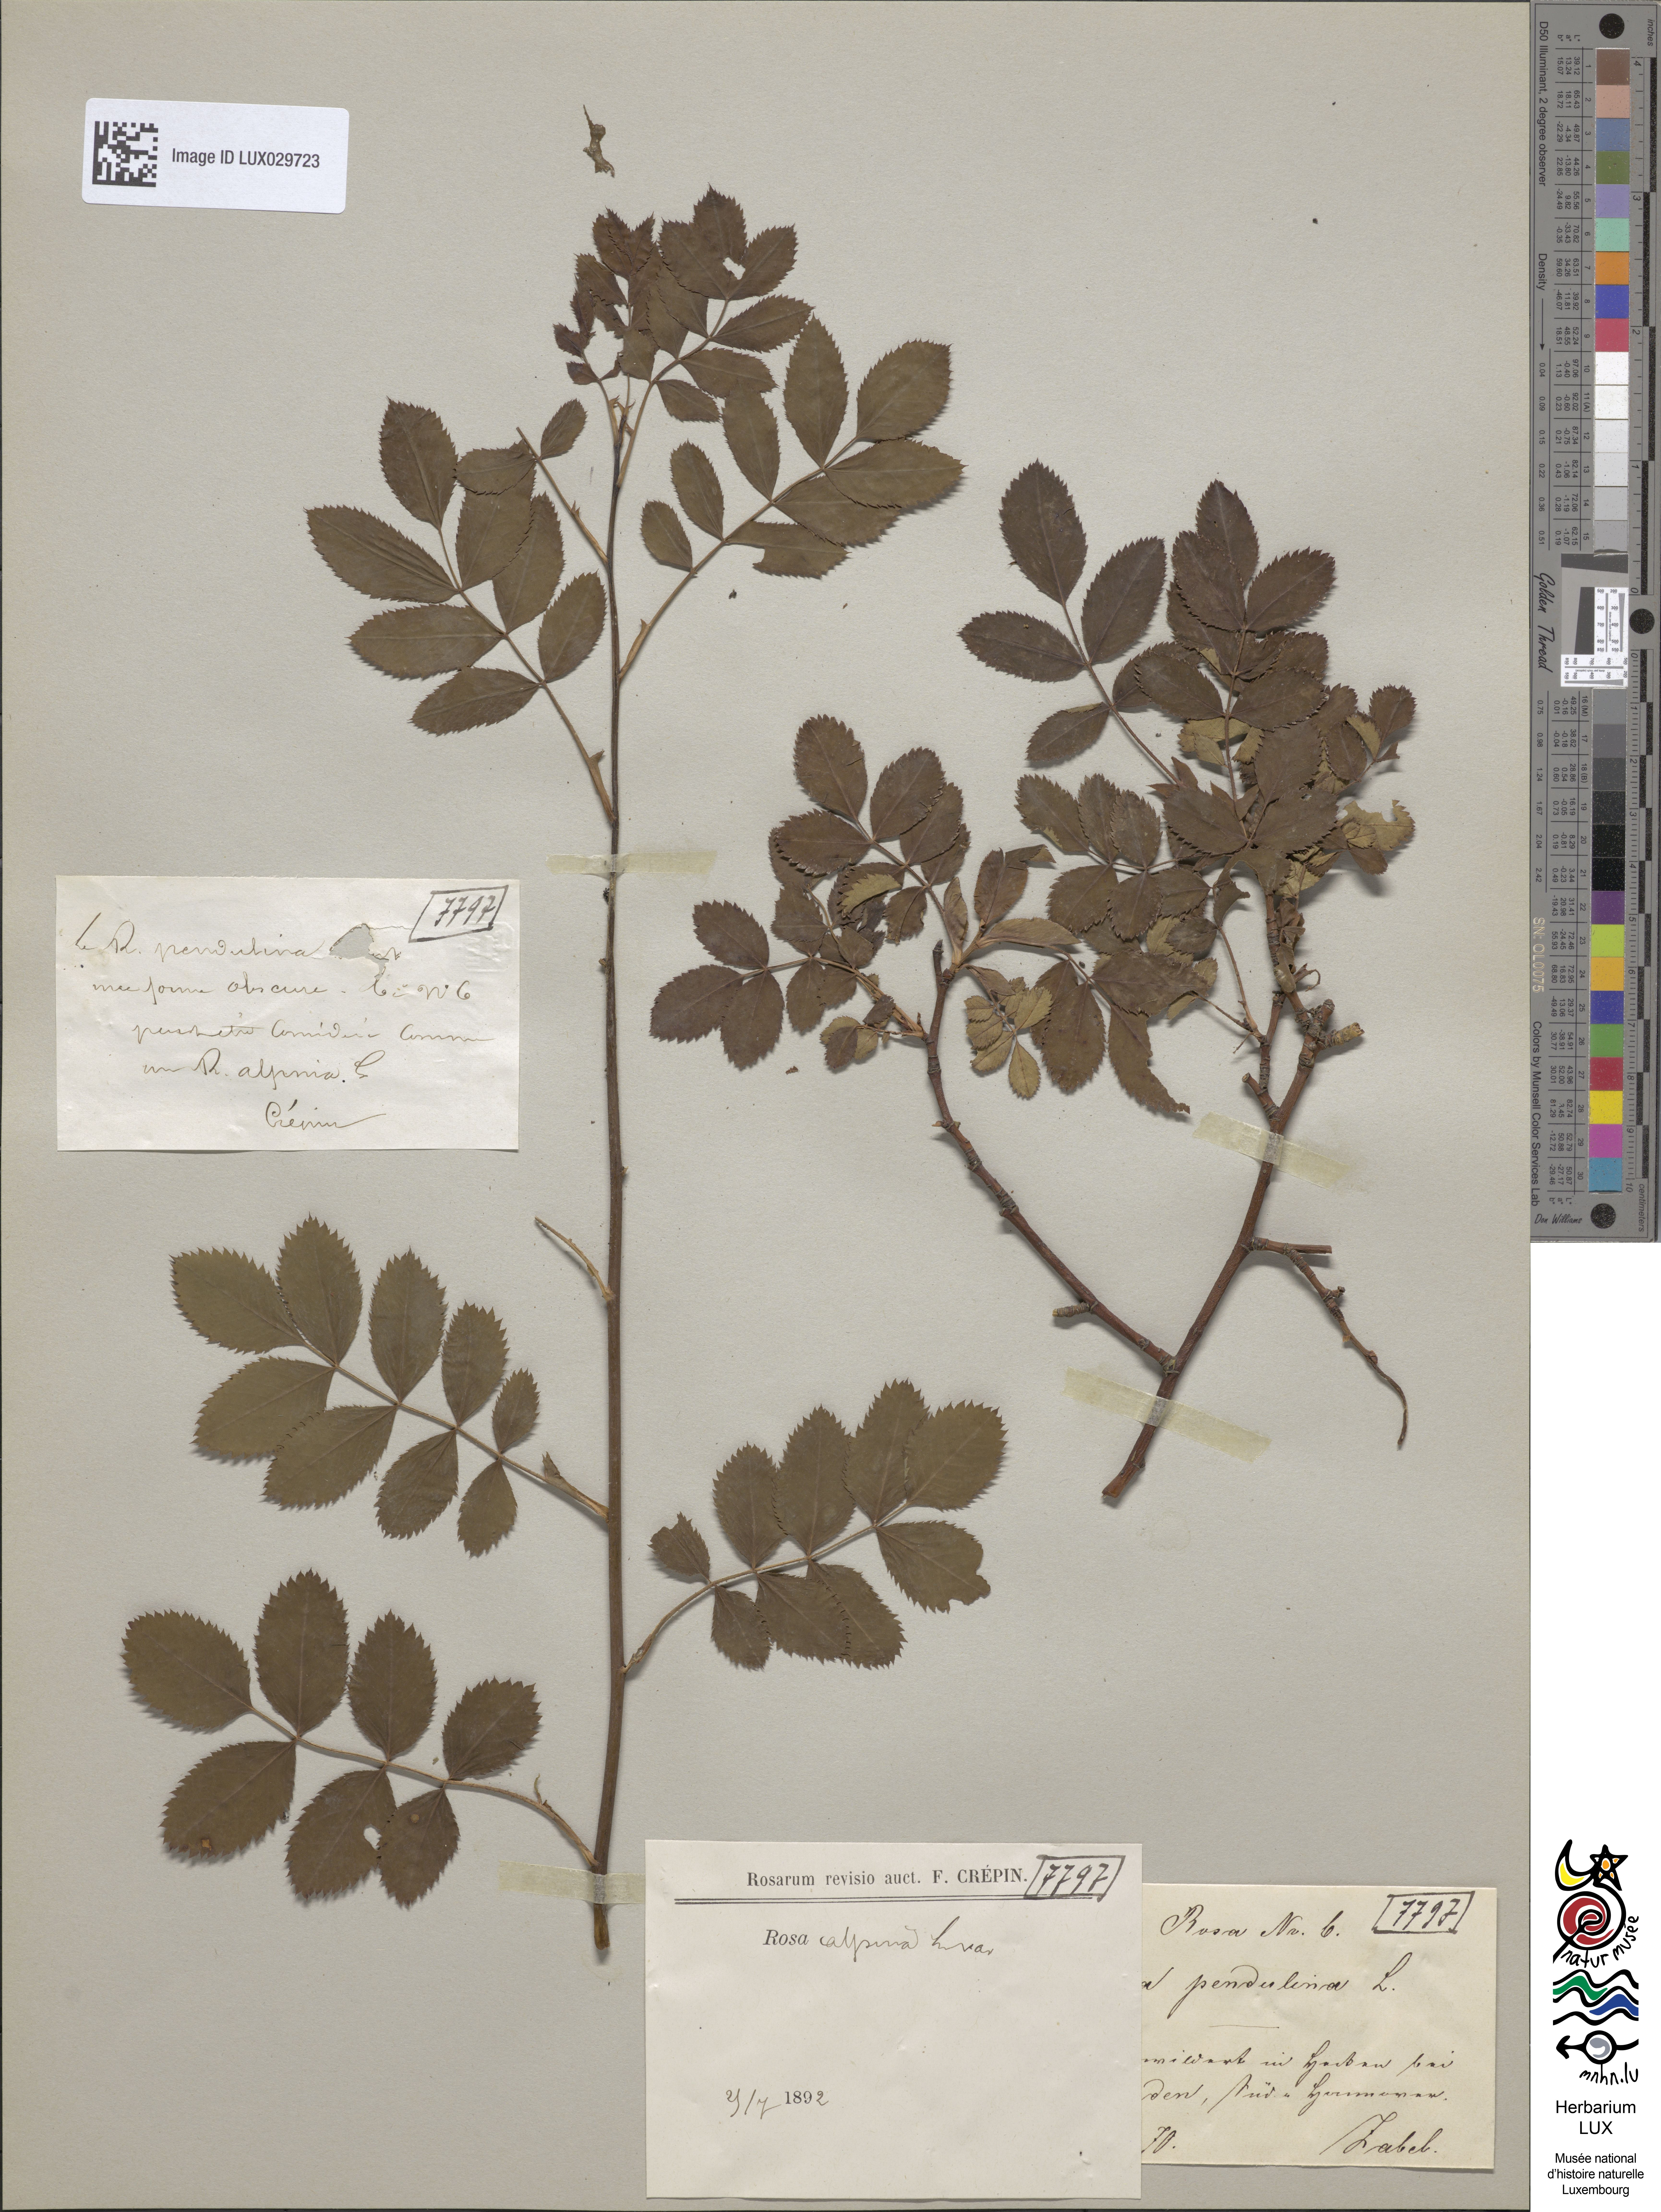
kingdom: Plantae
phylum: Tracheophyta
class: Magnoliopsida
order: Rosales
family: Rosaceae
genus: Rosa
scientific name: Rosa pendulina
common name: Alpine rose
